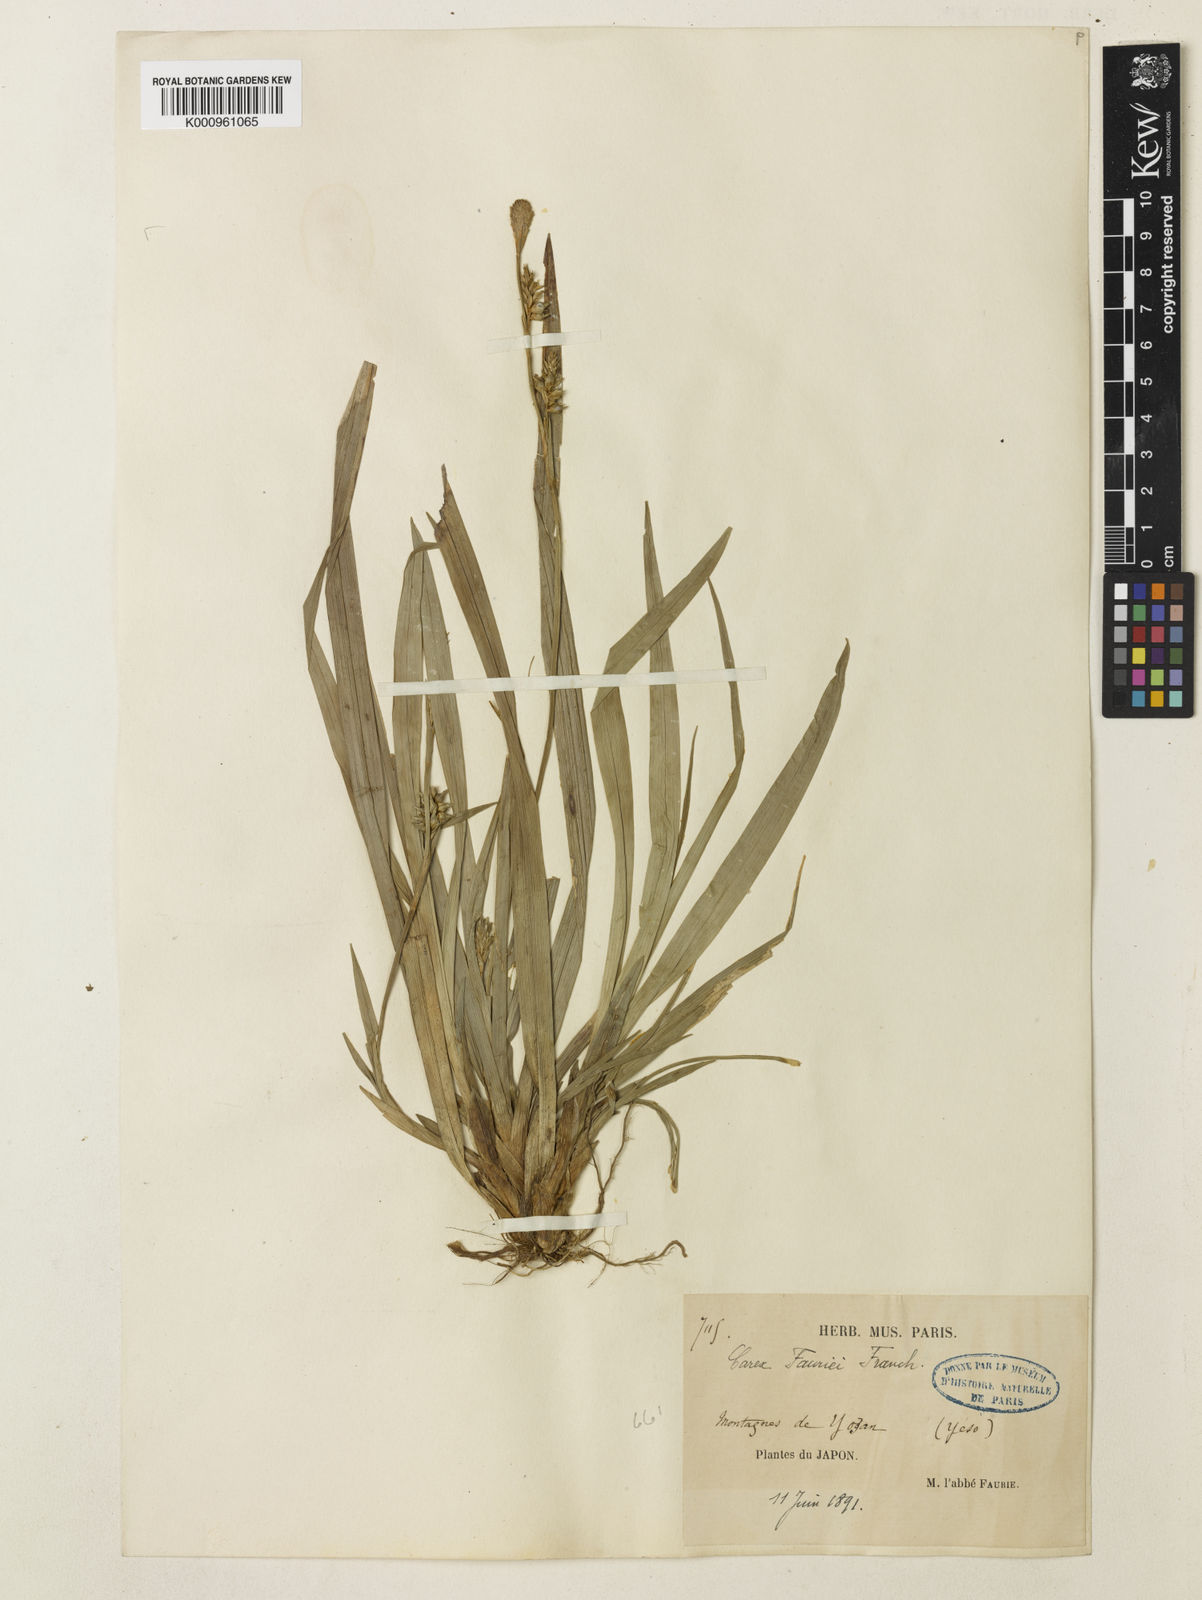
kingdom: Plantae
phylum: Tracheophyta
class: Liliopsida
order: Poales
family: Cyperaceae
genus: Carex
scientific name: Carex phacota
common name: Lakeshore sedge
